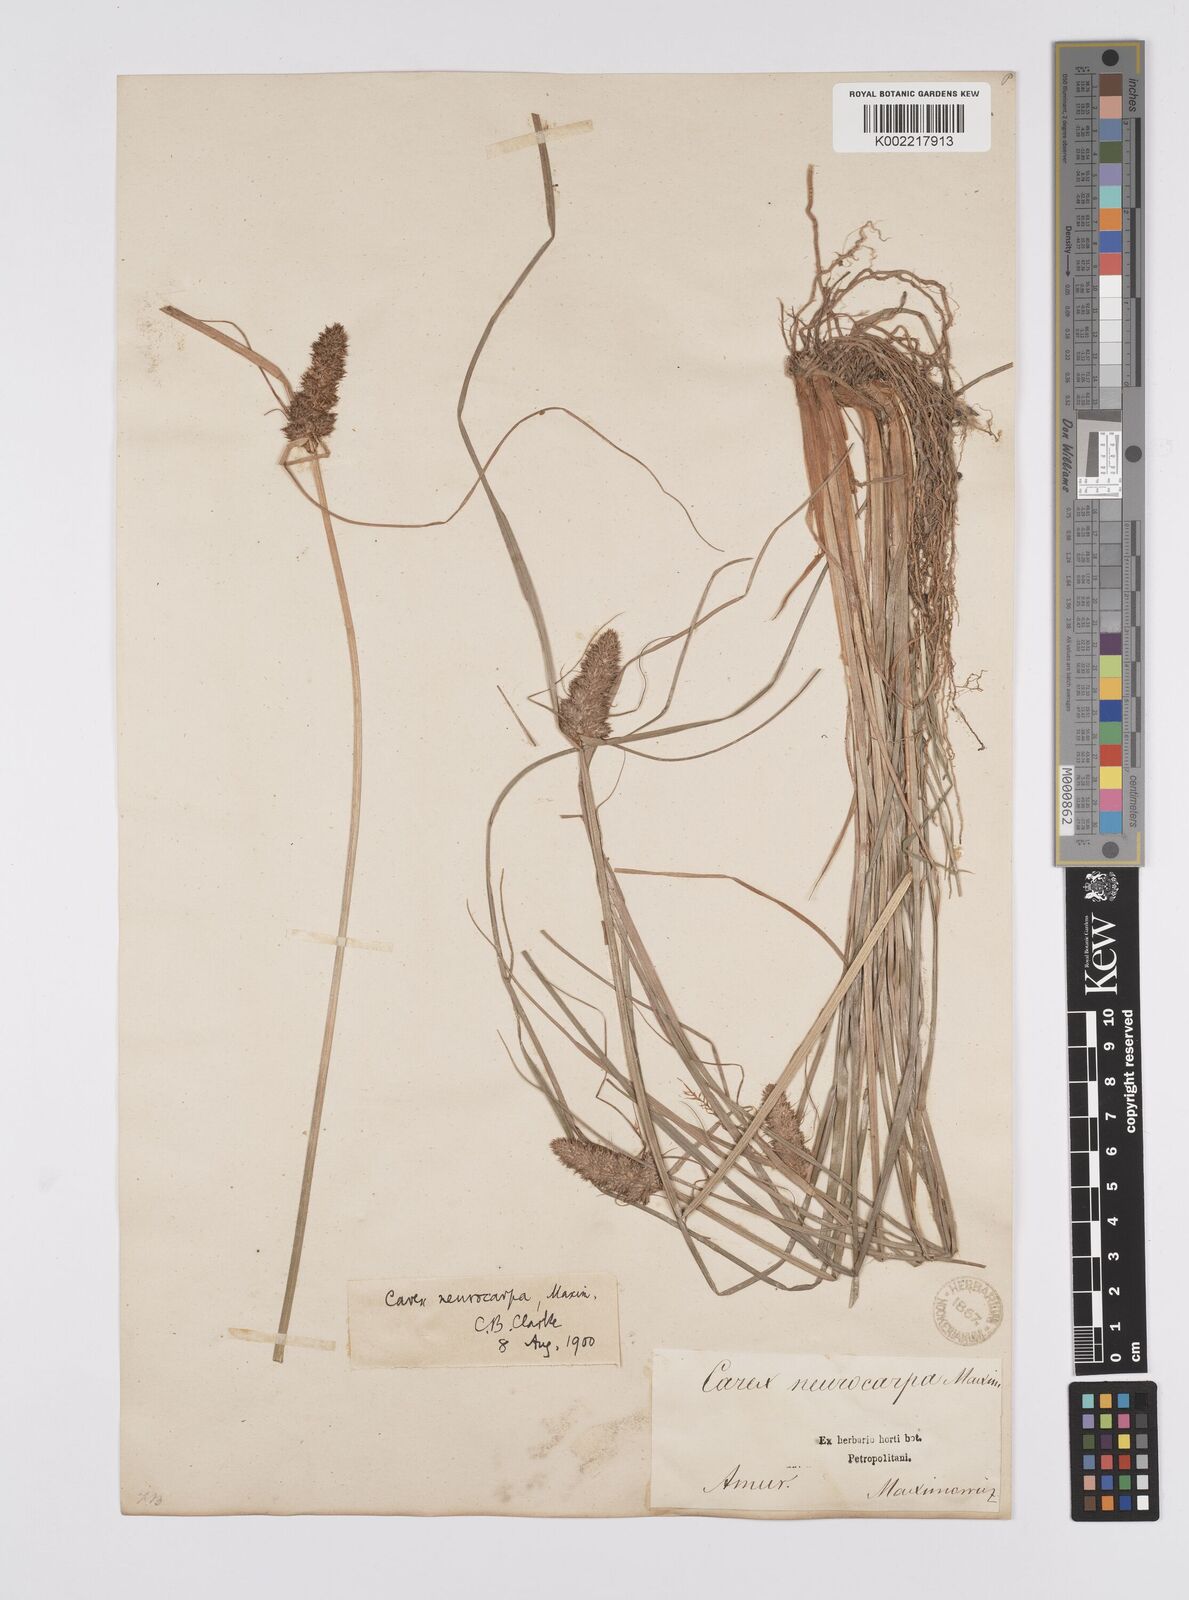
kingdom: Plantae
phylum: Tracheophyta
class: Liliopsida
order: Poales
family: Cyperaceae
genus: Carex
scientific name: Carex neurocarpa
